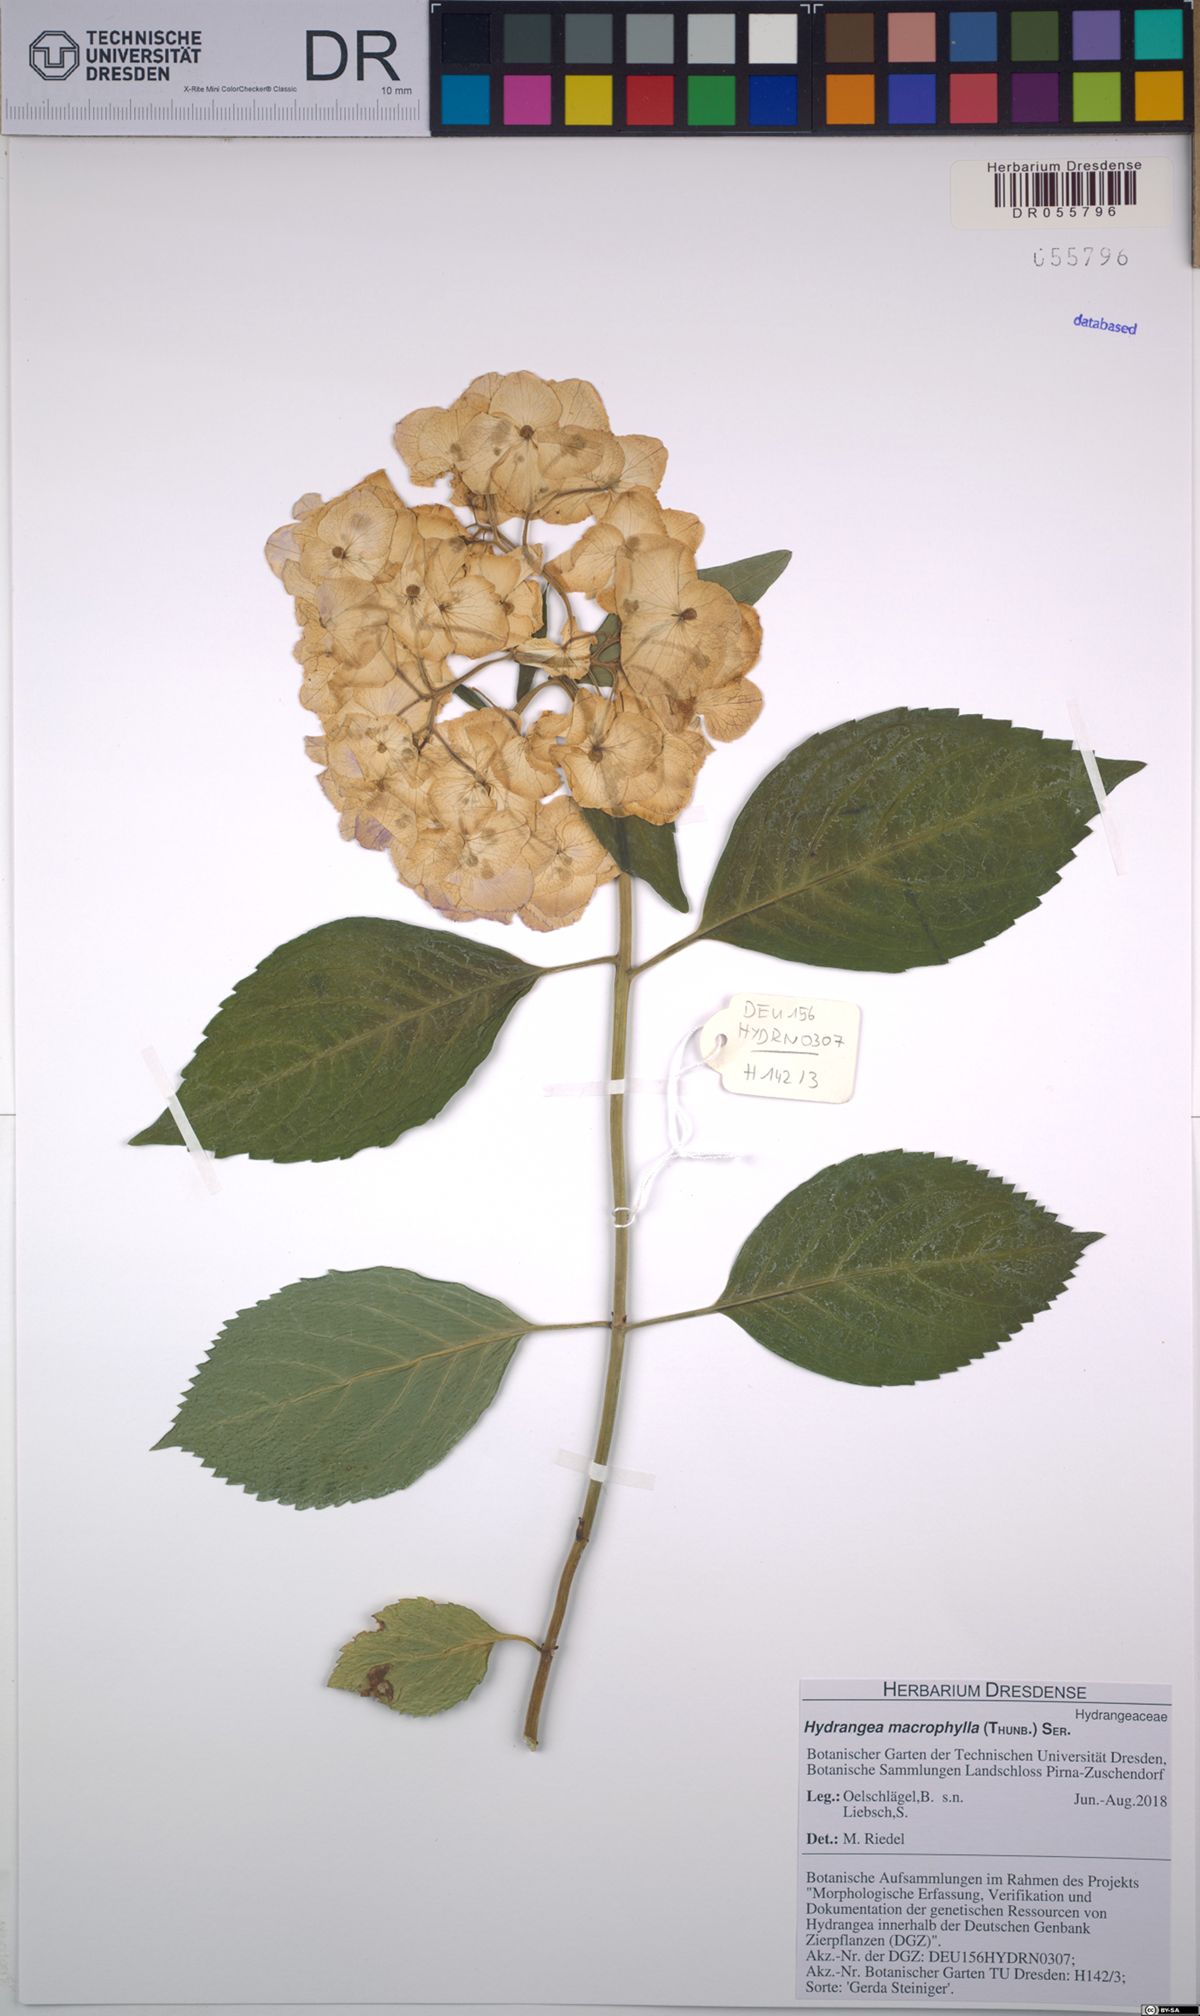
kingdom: Plantae
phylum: Tracheophyta
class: Magnoliopsida
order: Cornales
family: Hydrangeaceae
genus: Hydrangea
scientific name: Hydrangea macrophylla
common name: Hydrangea
